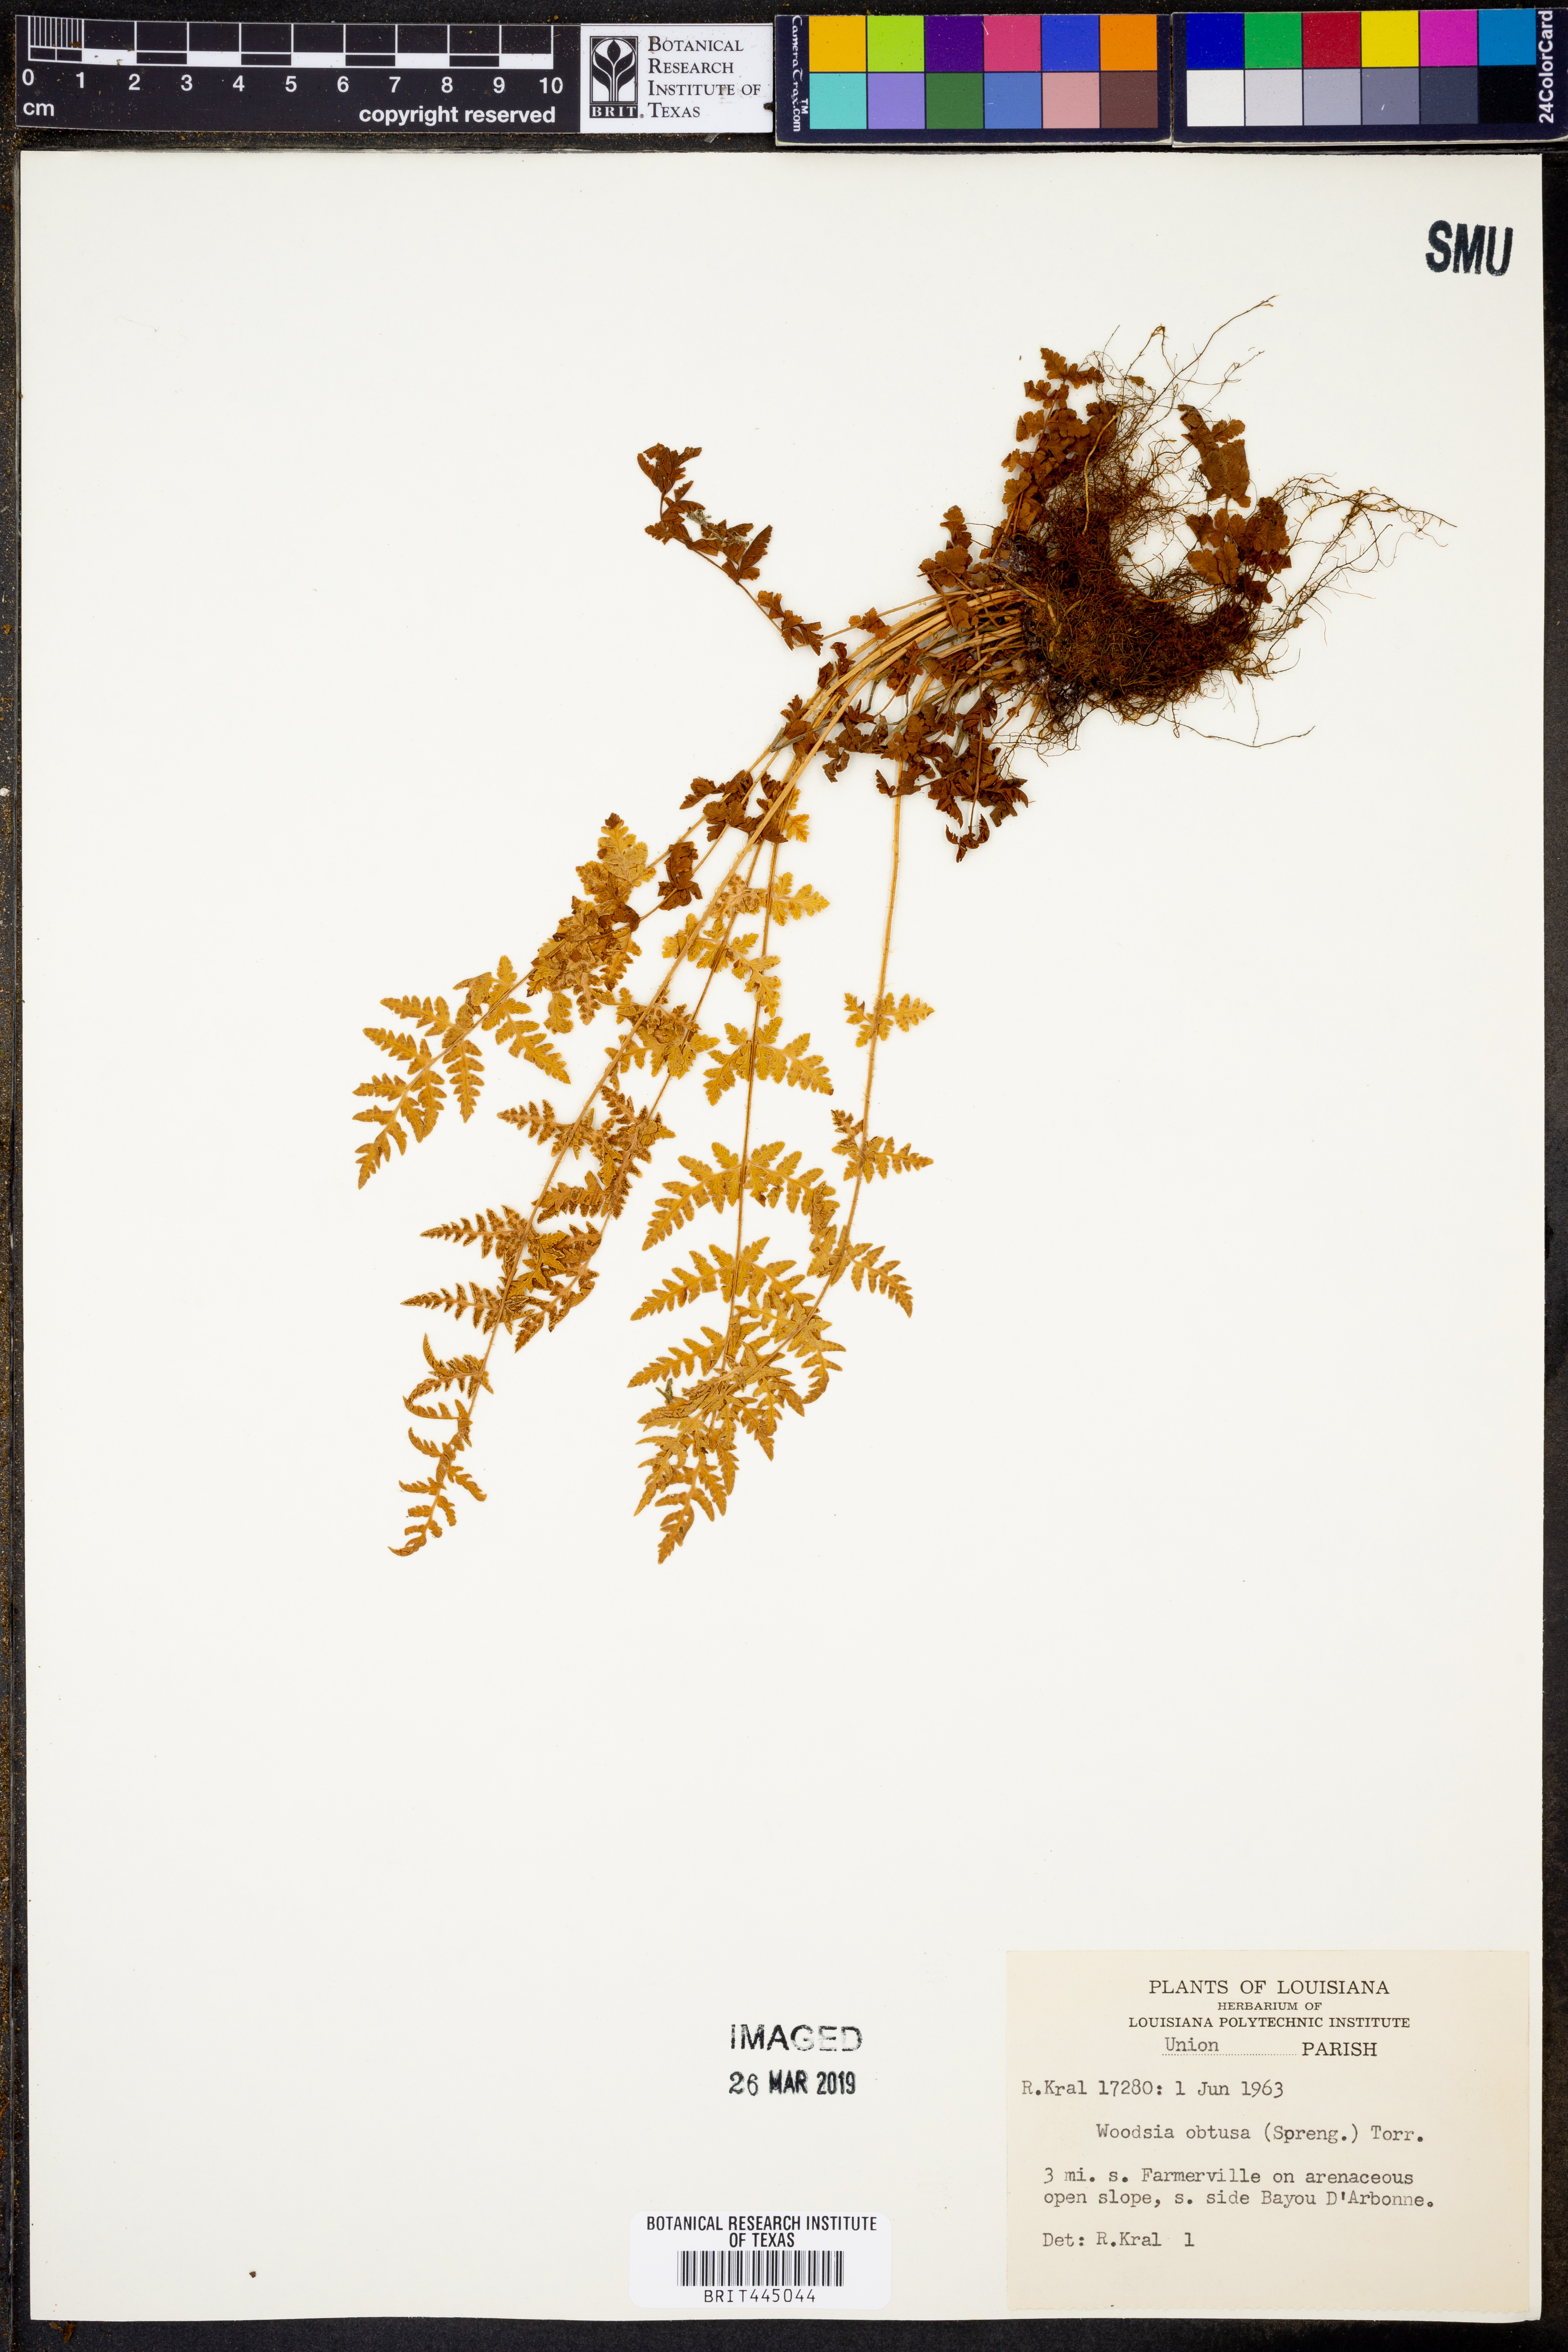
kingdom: Plantae
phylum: Tracheophyta
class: Polypodiopsida
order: Polypodiales
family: Woodsiaceae
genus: Physematium
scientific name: Physematium obtusum
